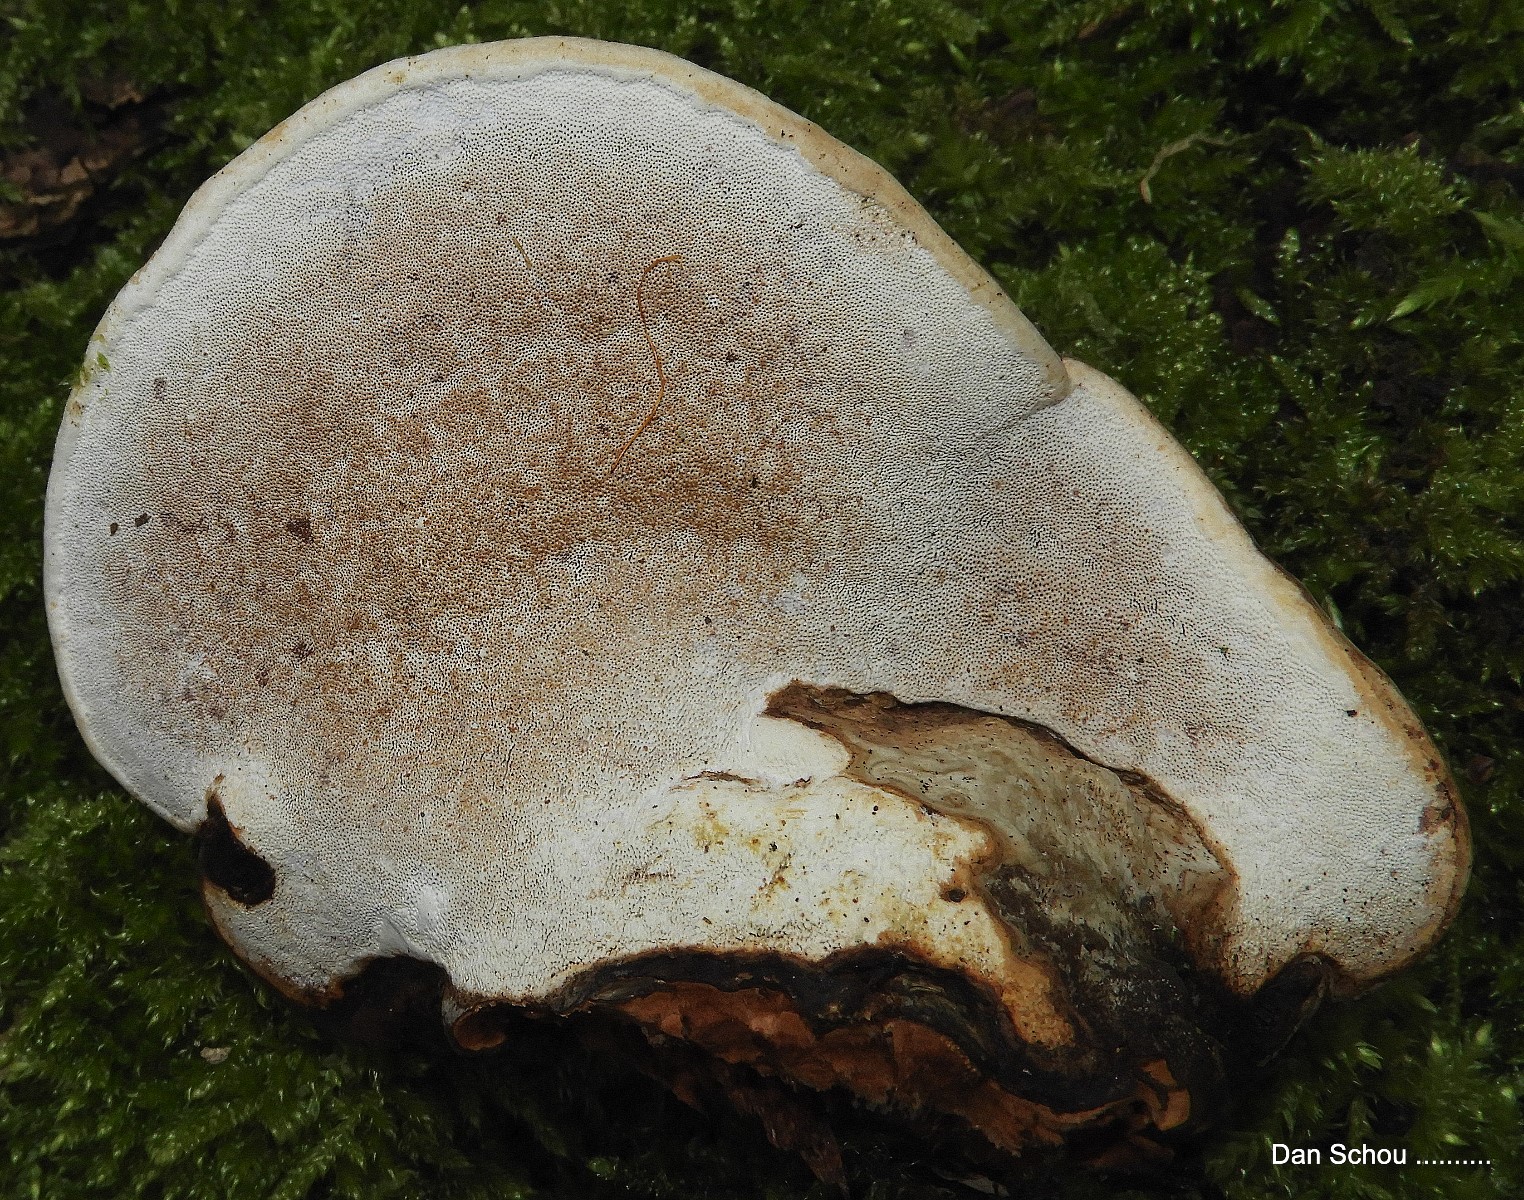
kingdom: Fungi
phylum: Basidiomycota
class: Agaricomycetes
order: Polyporales
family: Polyporaceae
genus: Fomes
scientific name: Fomes fomentarius
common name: tøndersvamp
